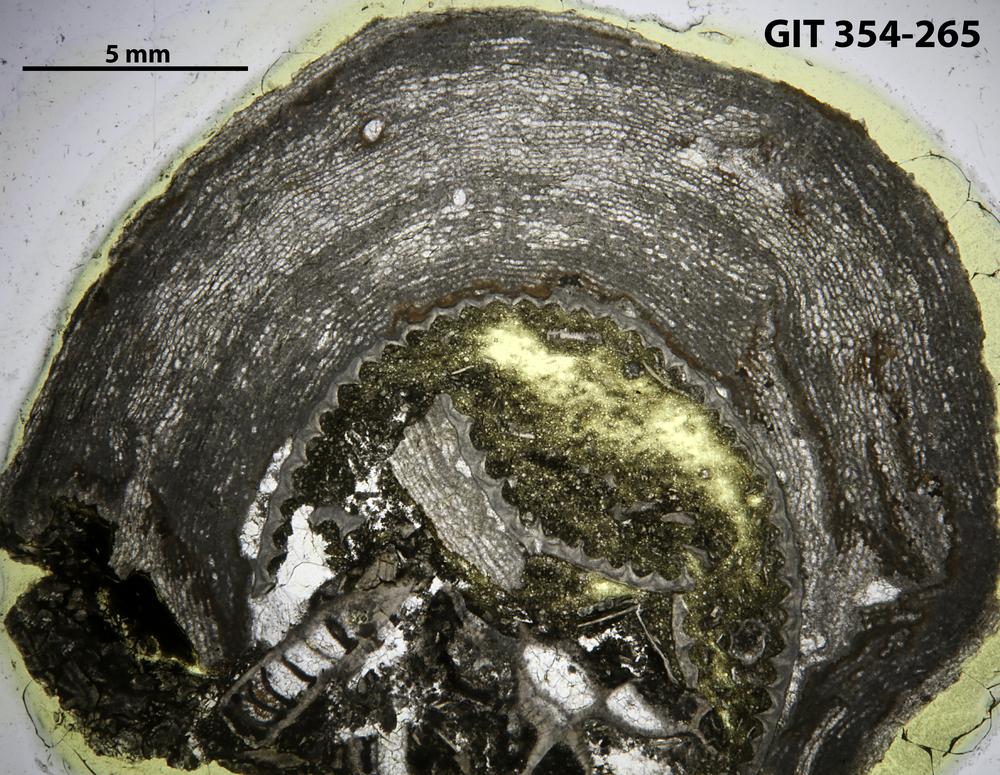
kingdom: Animalia
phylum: Porifera
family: Clathrodictyidae
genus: Clathrodictyon
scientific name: Clathrodictyon sulevi
